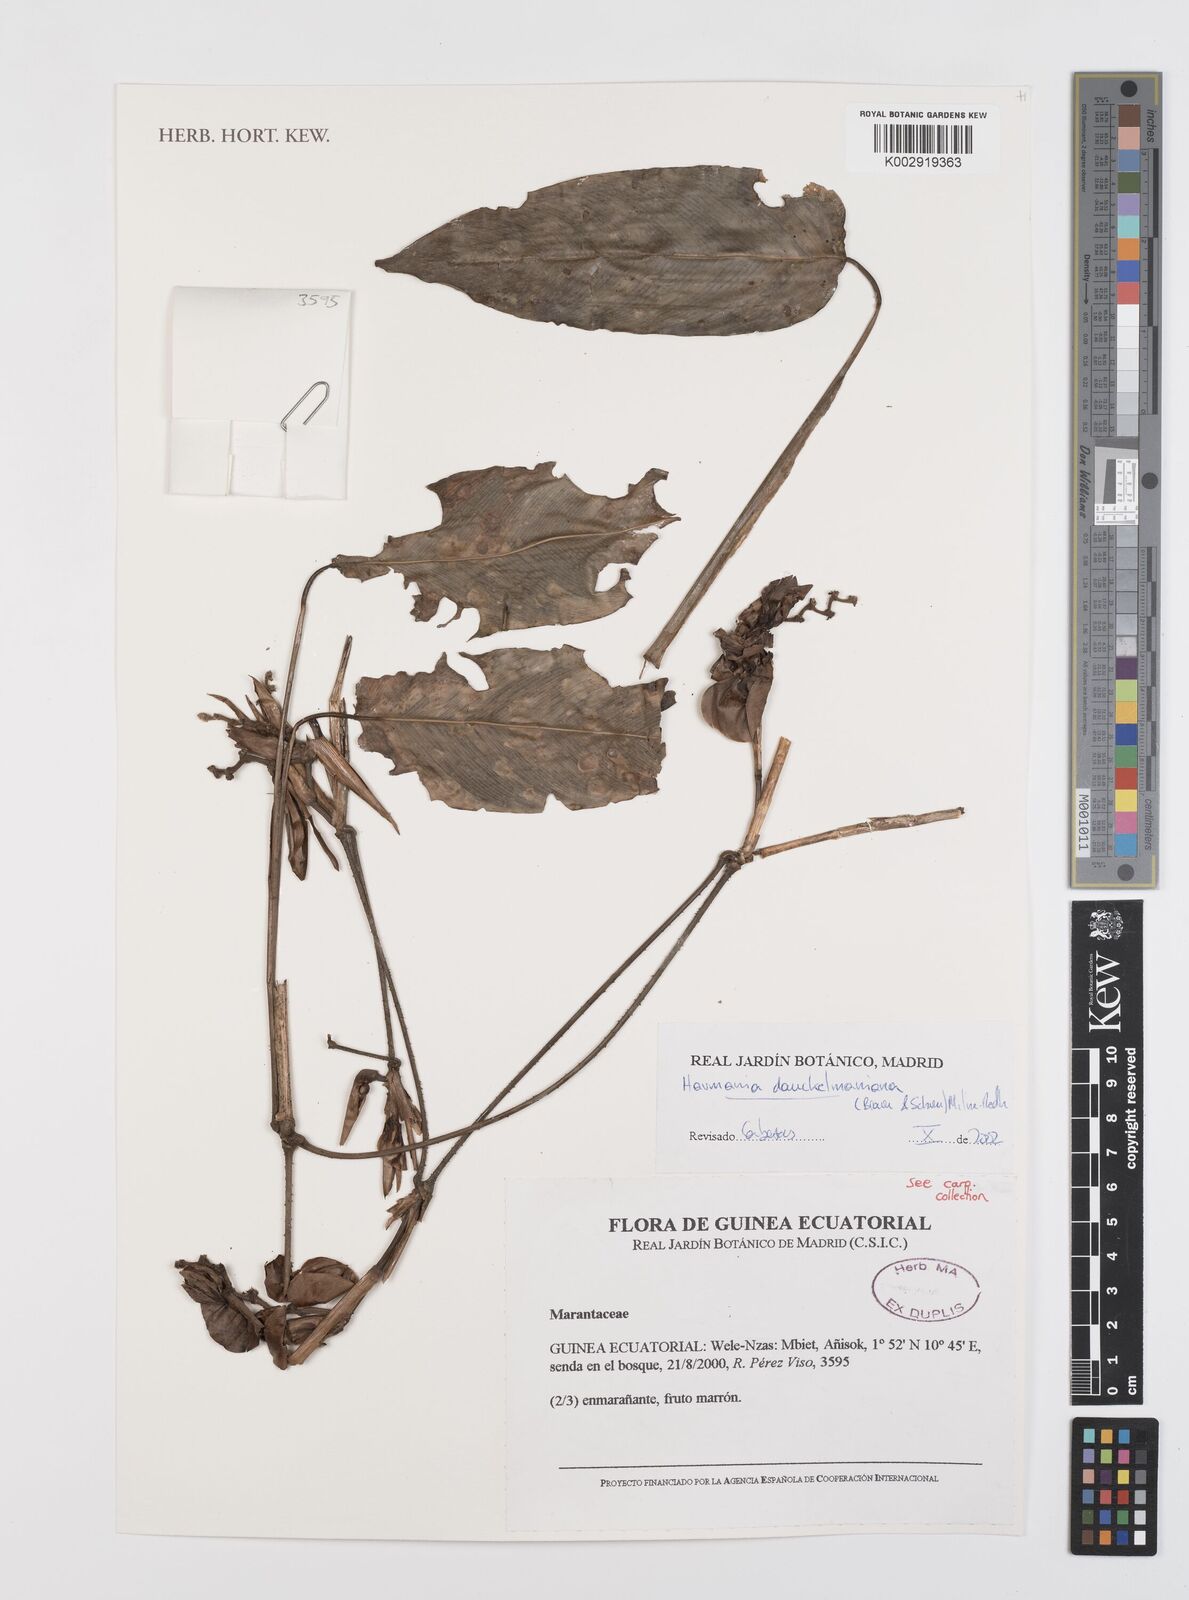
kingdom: Plantae
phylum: Tracheophyta
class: Liliopsida
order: Zingiberales
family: Marantaceae
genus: Haumania
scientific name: Haumania danckelmaniana
